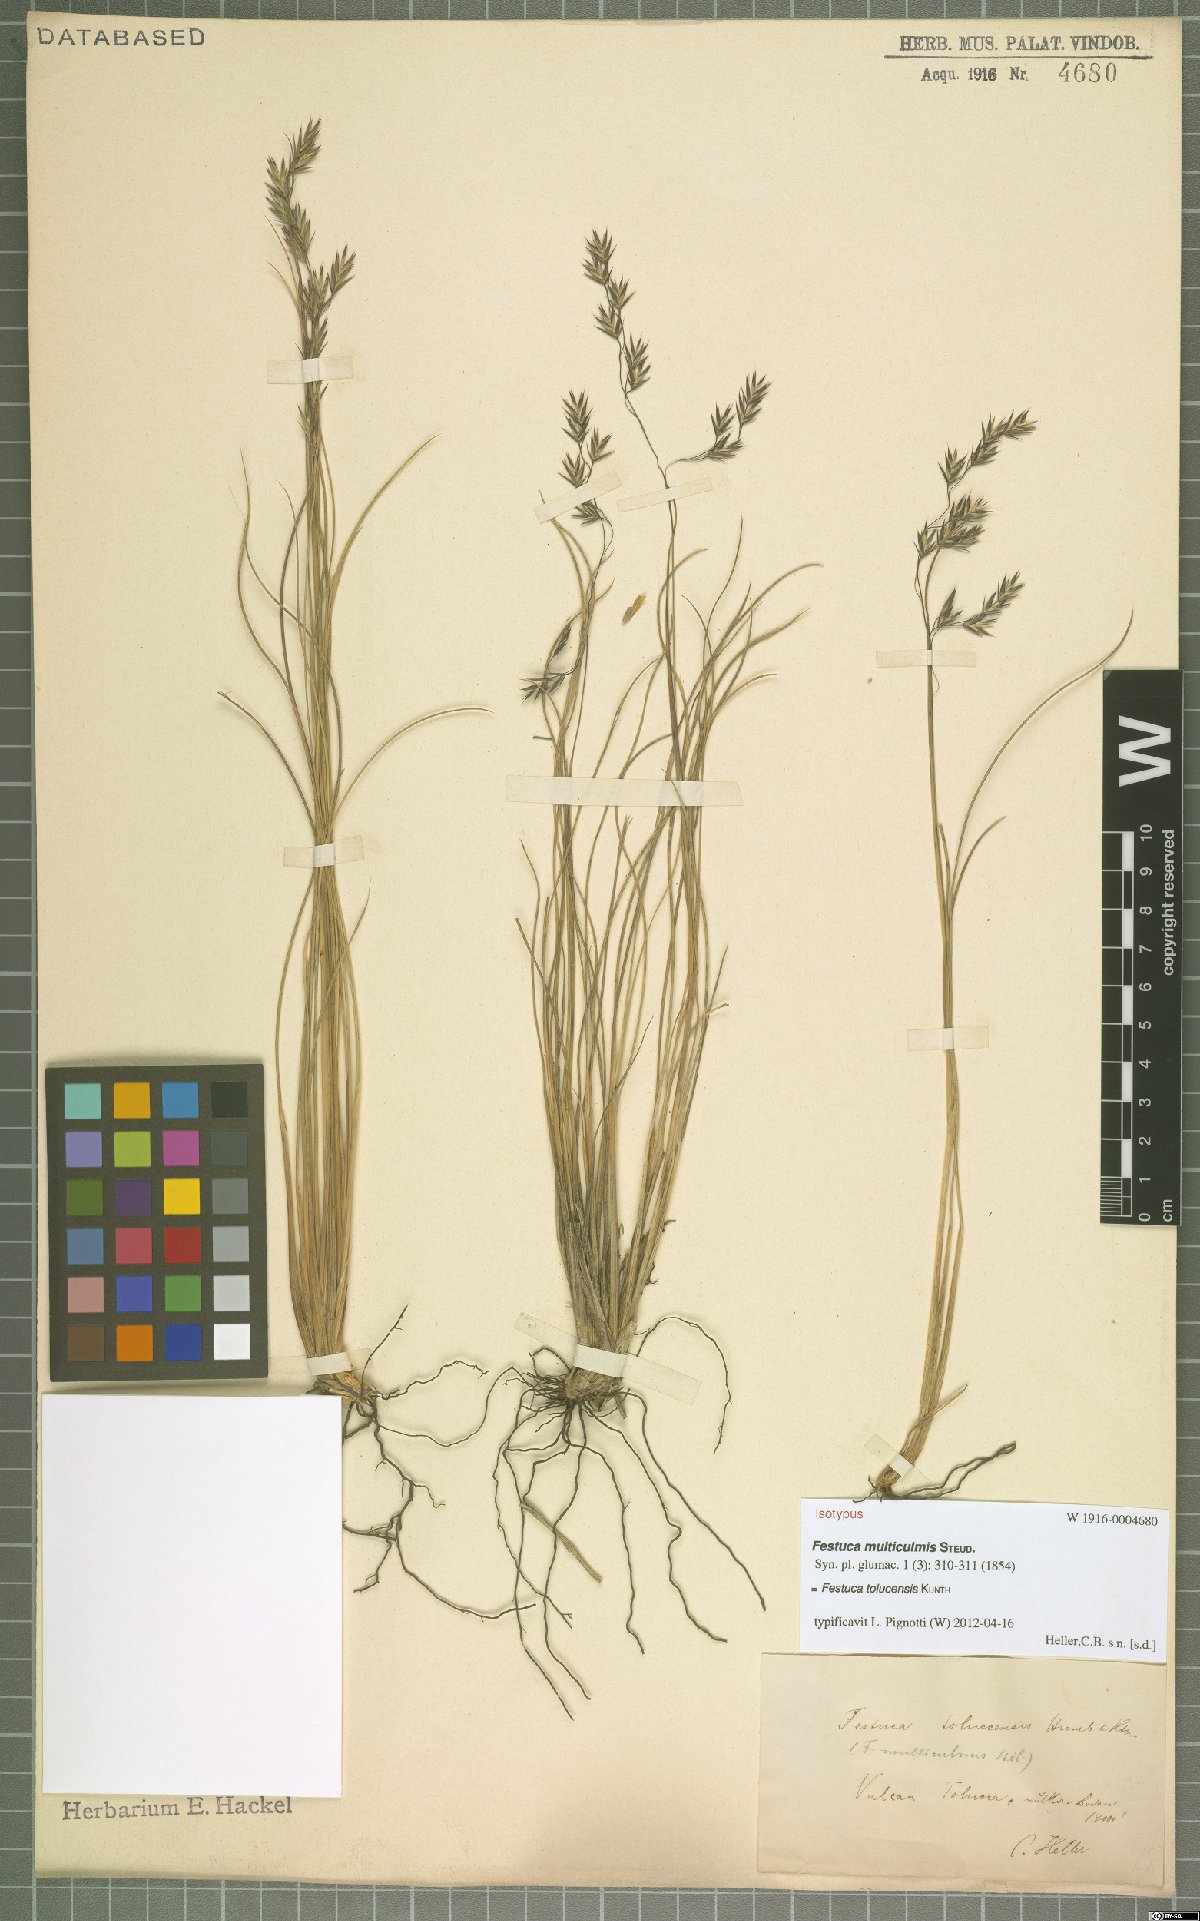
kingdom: Plantae
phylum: Tracheophyta
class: Liliopsida
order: Poales
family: Poaceae
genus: Festuca
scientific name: Festuca tolucensis
